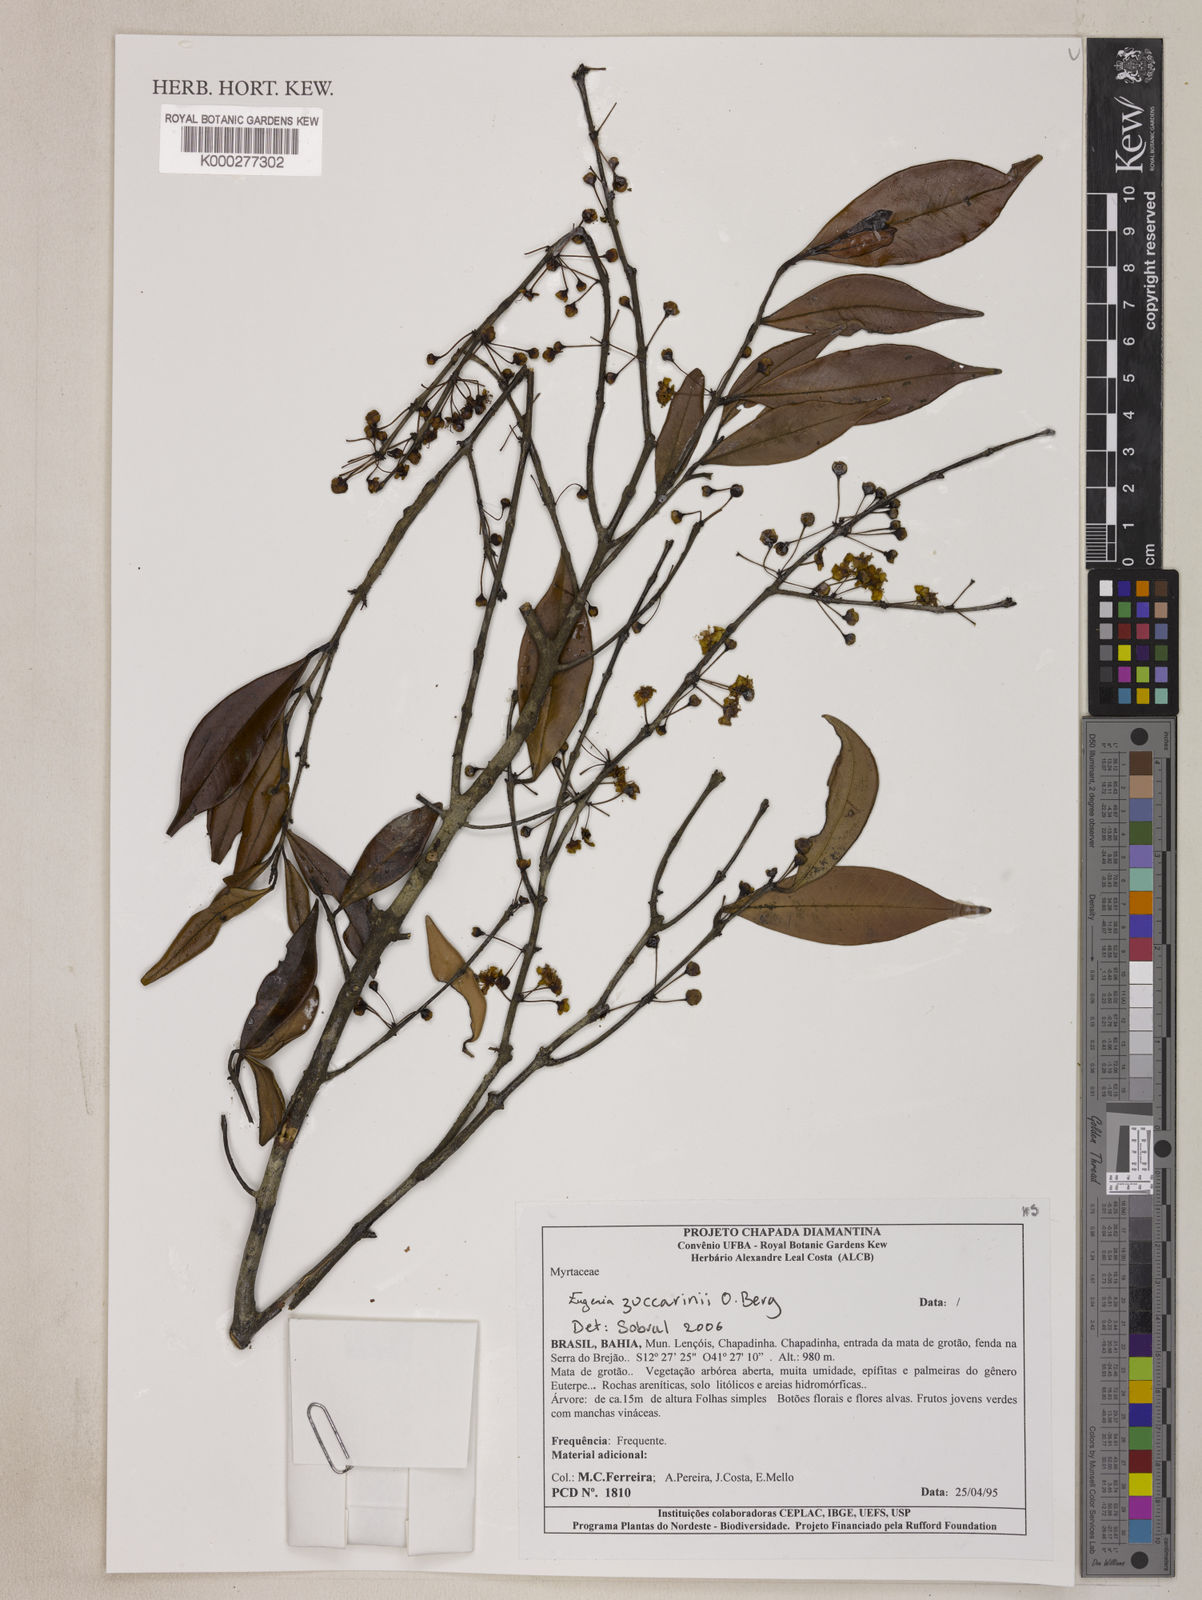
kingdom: Plantae
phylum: Tracheophyta
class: Magnoliopsida
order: Myrtales
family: Myrtaceae
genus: Eugenia
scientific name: Eugenia zuccarinii
